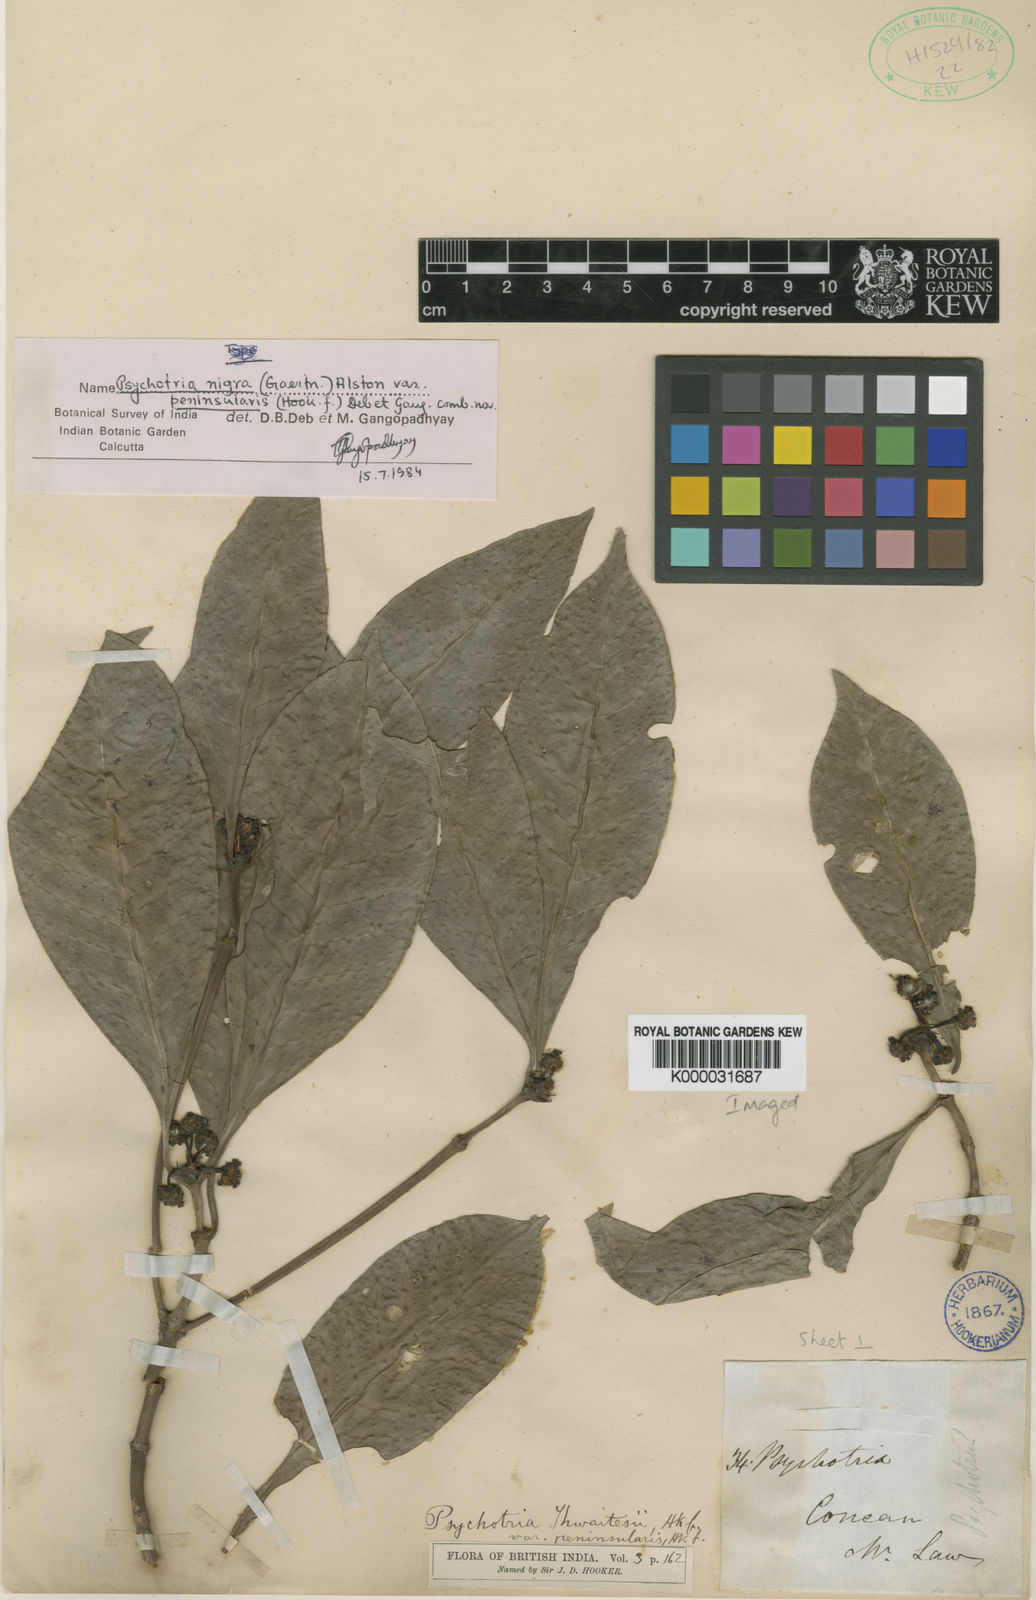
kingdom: Plantae
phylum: Tracheophyta
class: Magnoliopsida
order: Gentianales
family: Rubiaceae
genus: Psychotria
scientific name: Psychotria nigra
